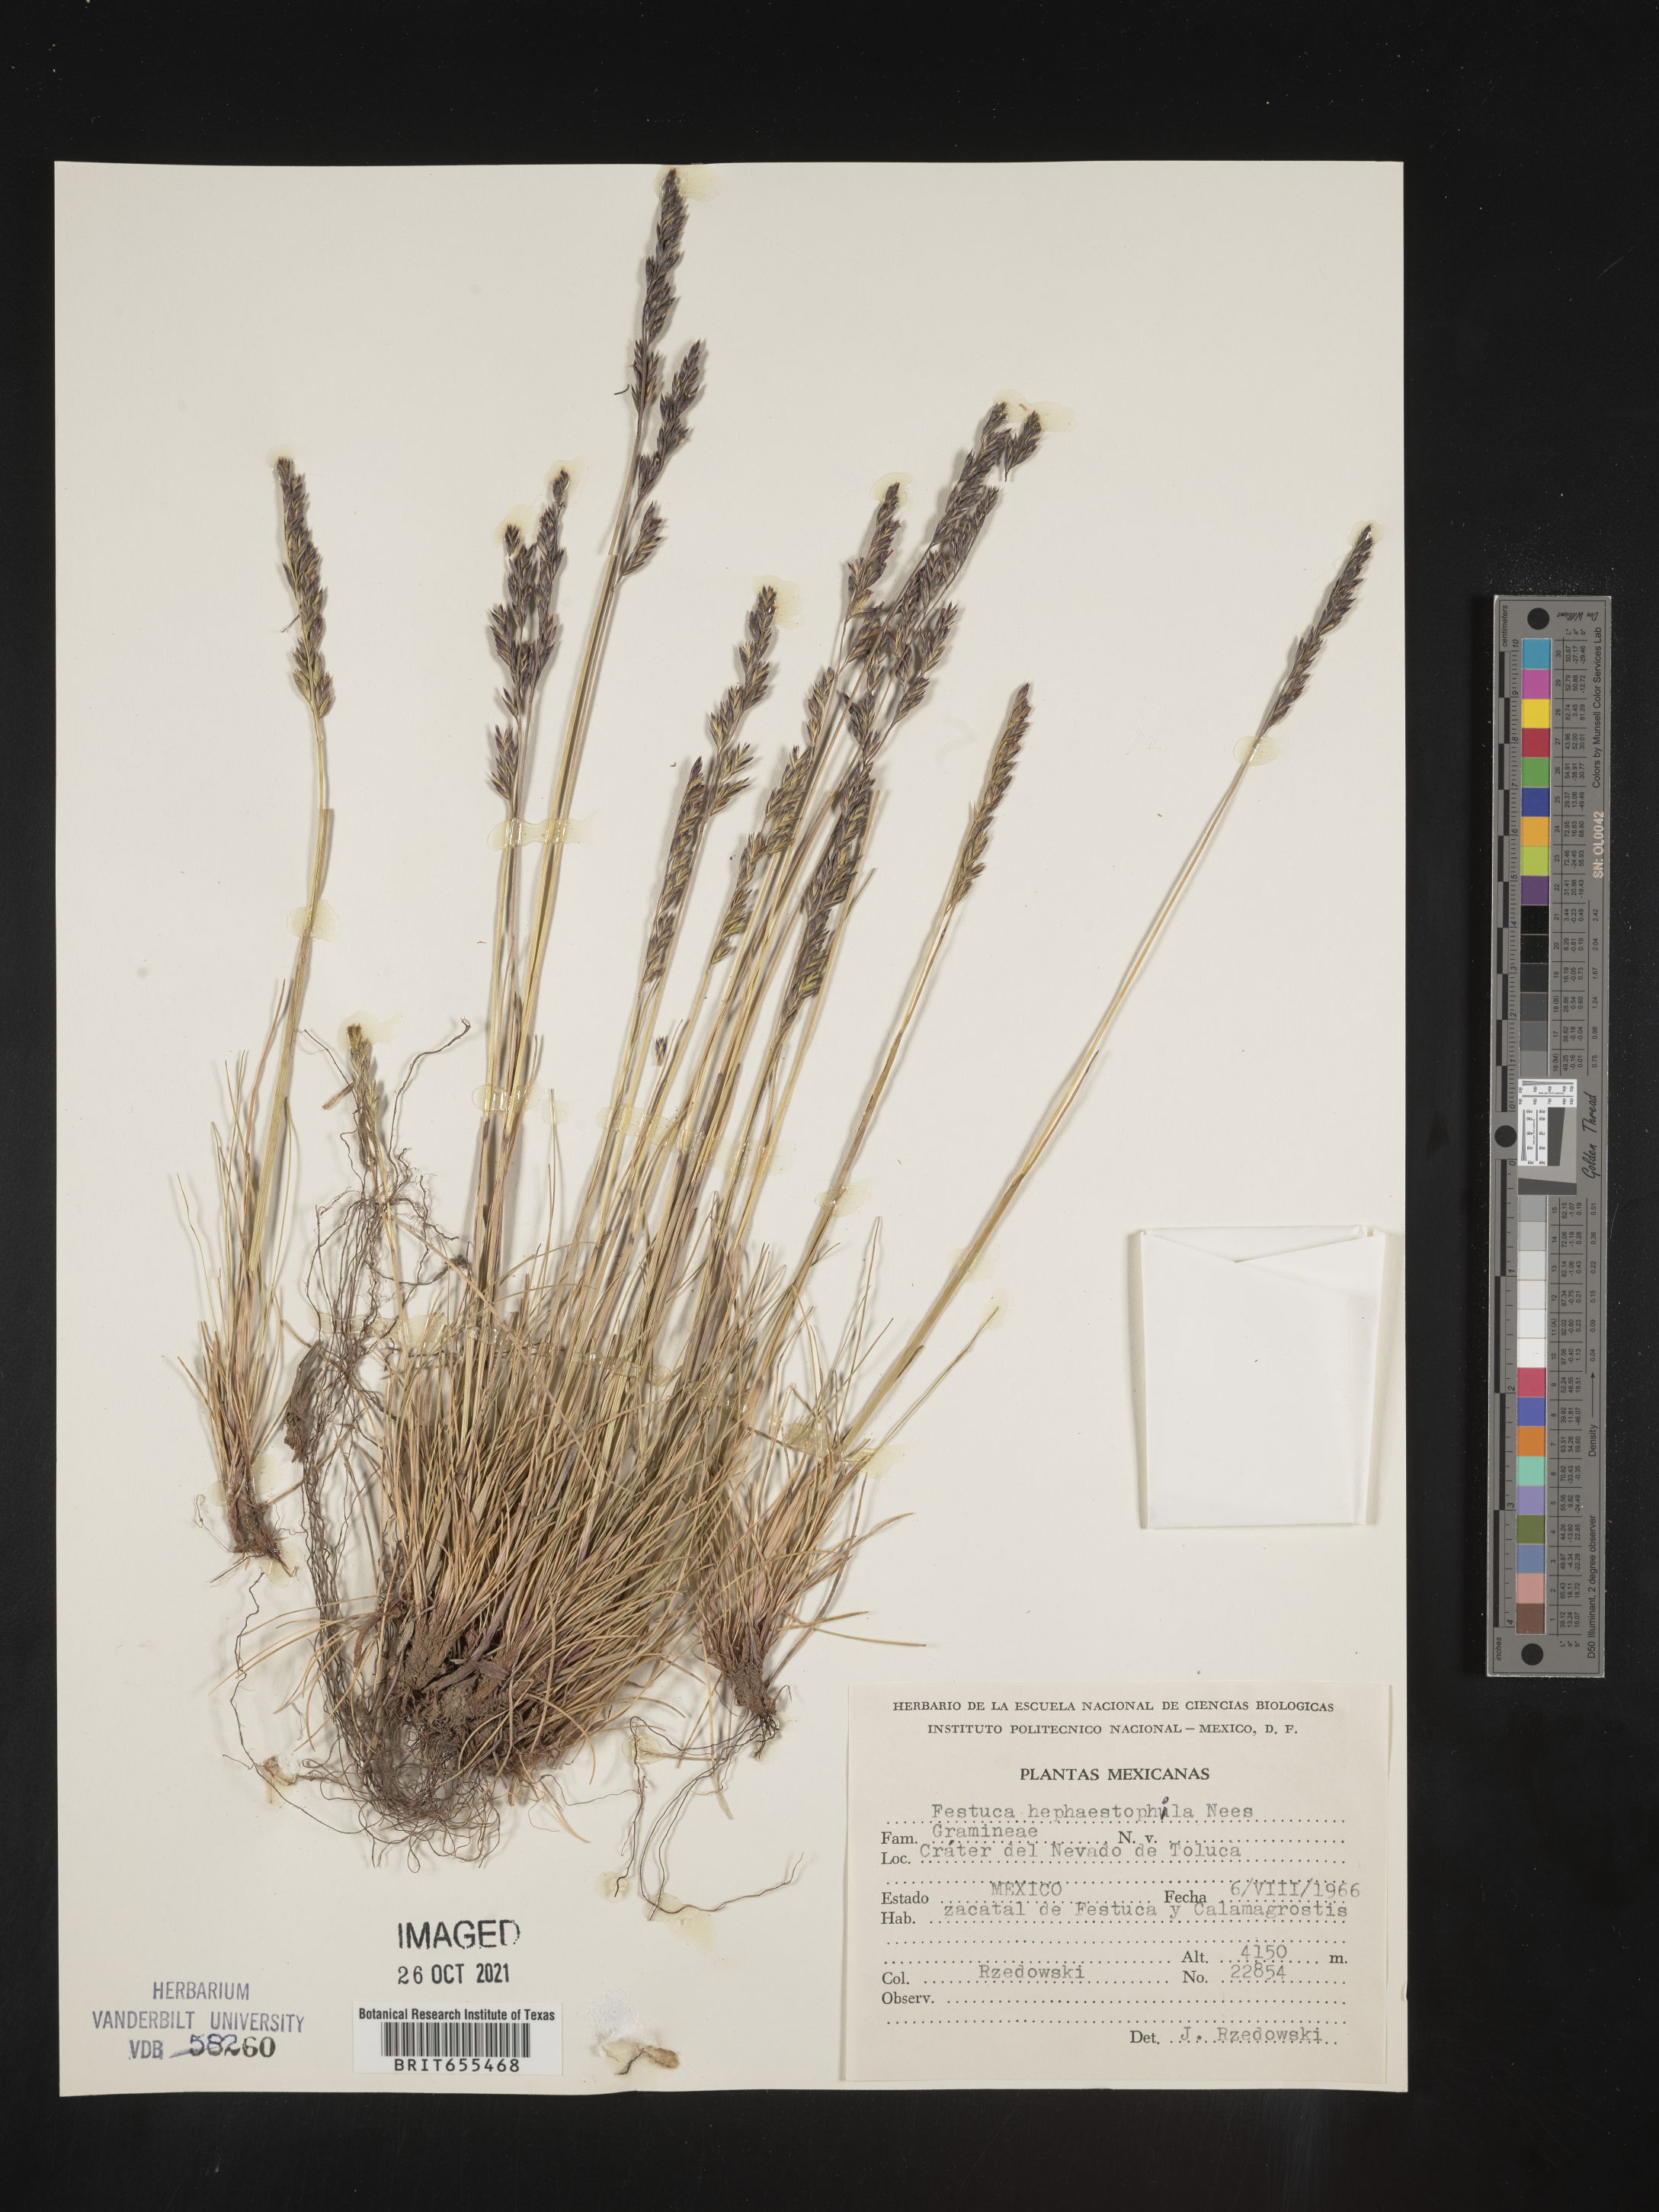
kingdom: Plantae
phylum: Tracheophyta
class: Liliopsida
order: Poales
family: Poaceae
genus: Festuca
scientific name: Festuca
